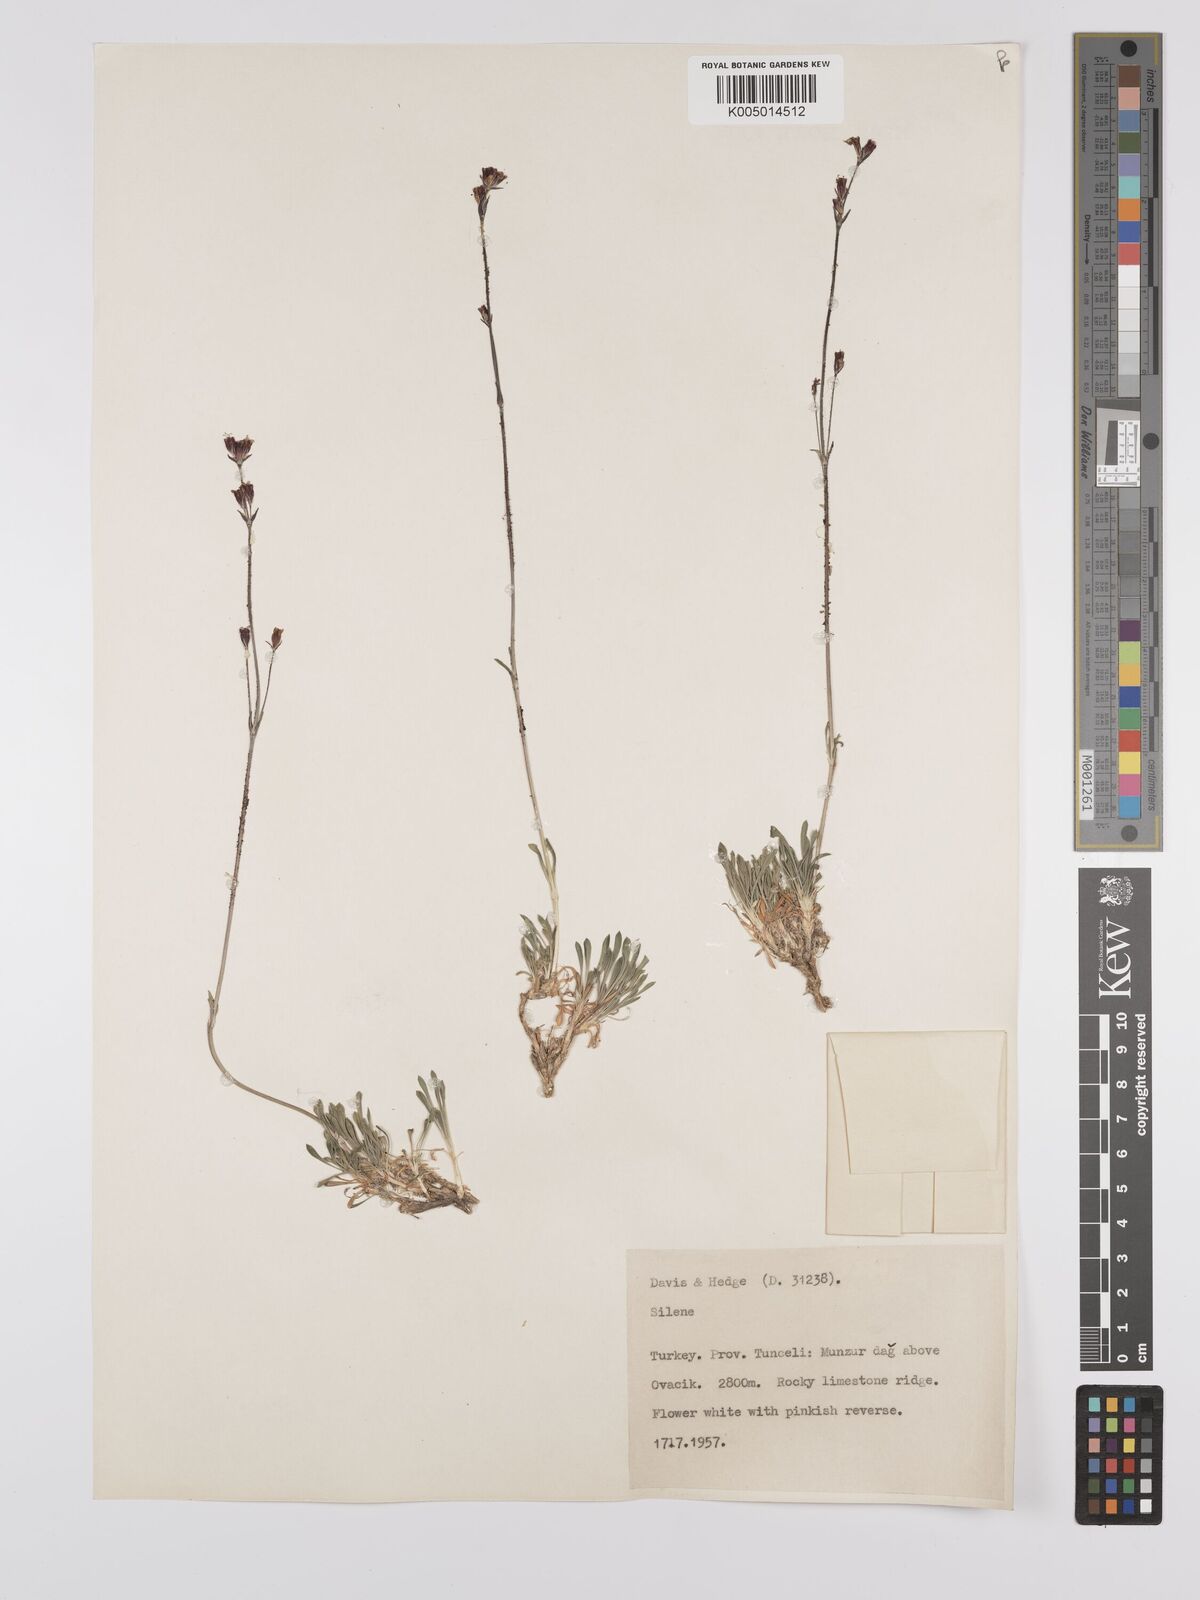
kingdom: Plantae
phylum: Tracheophyta
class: Magnoliopsida
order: Caryophyllales
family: Caryophyllaceae
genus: Silene
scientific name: Silene
